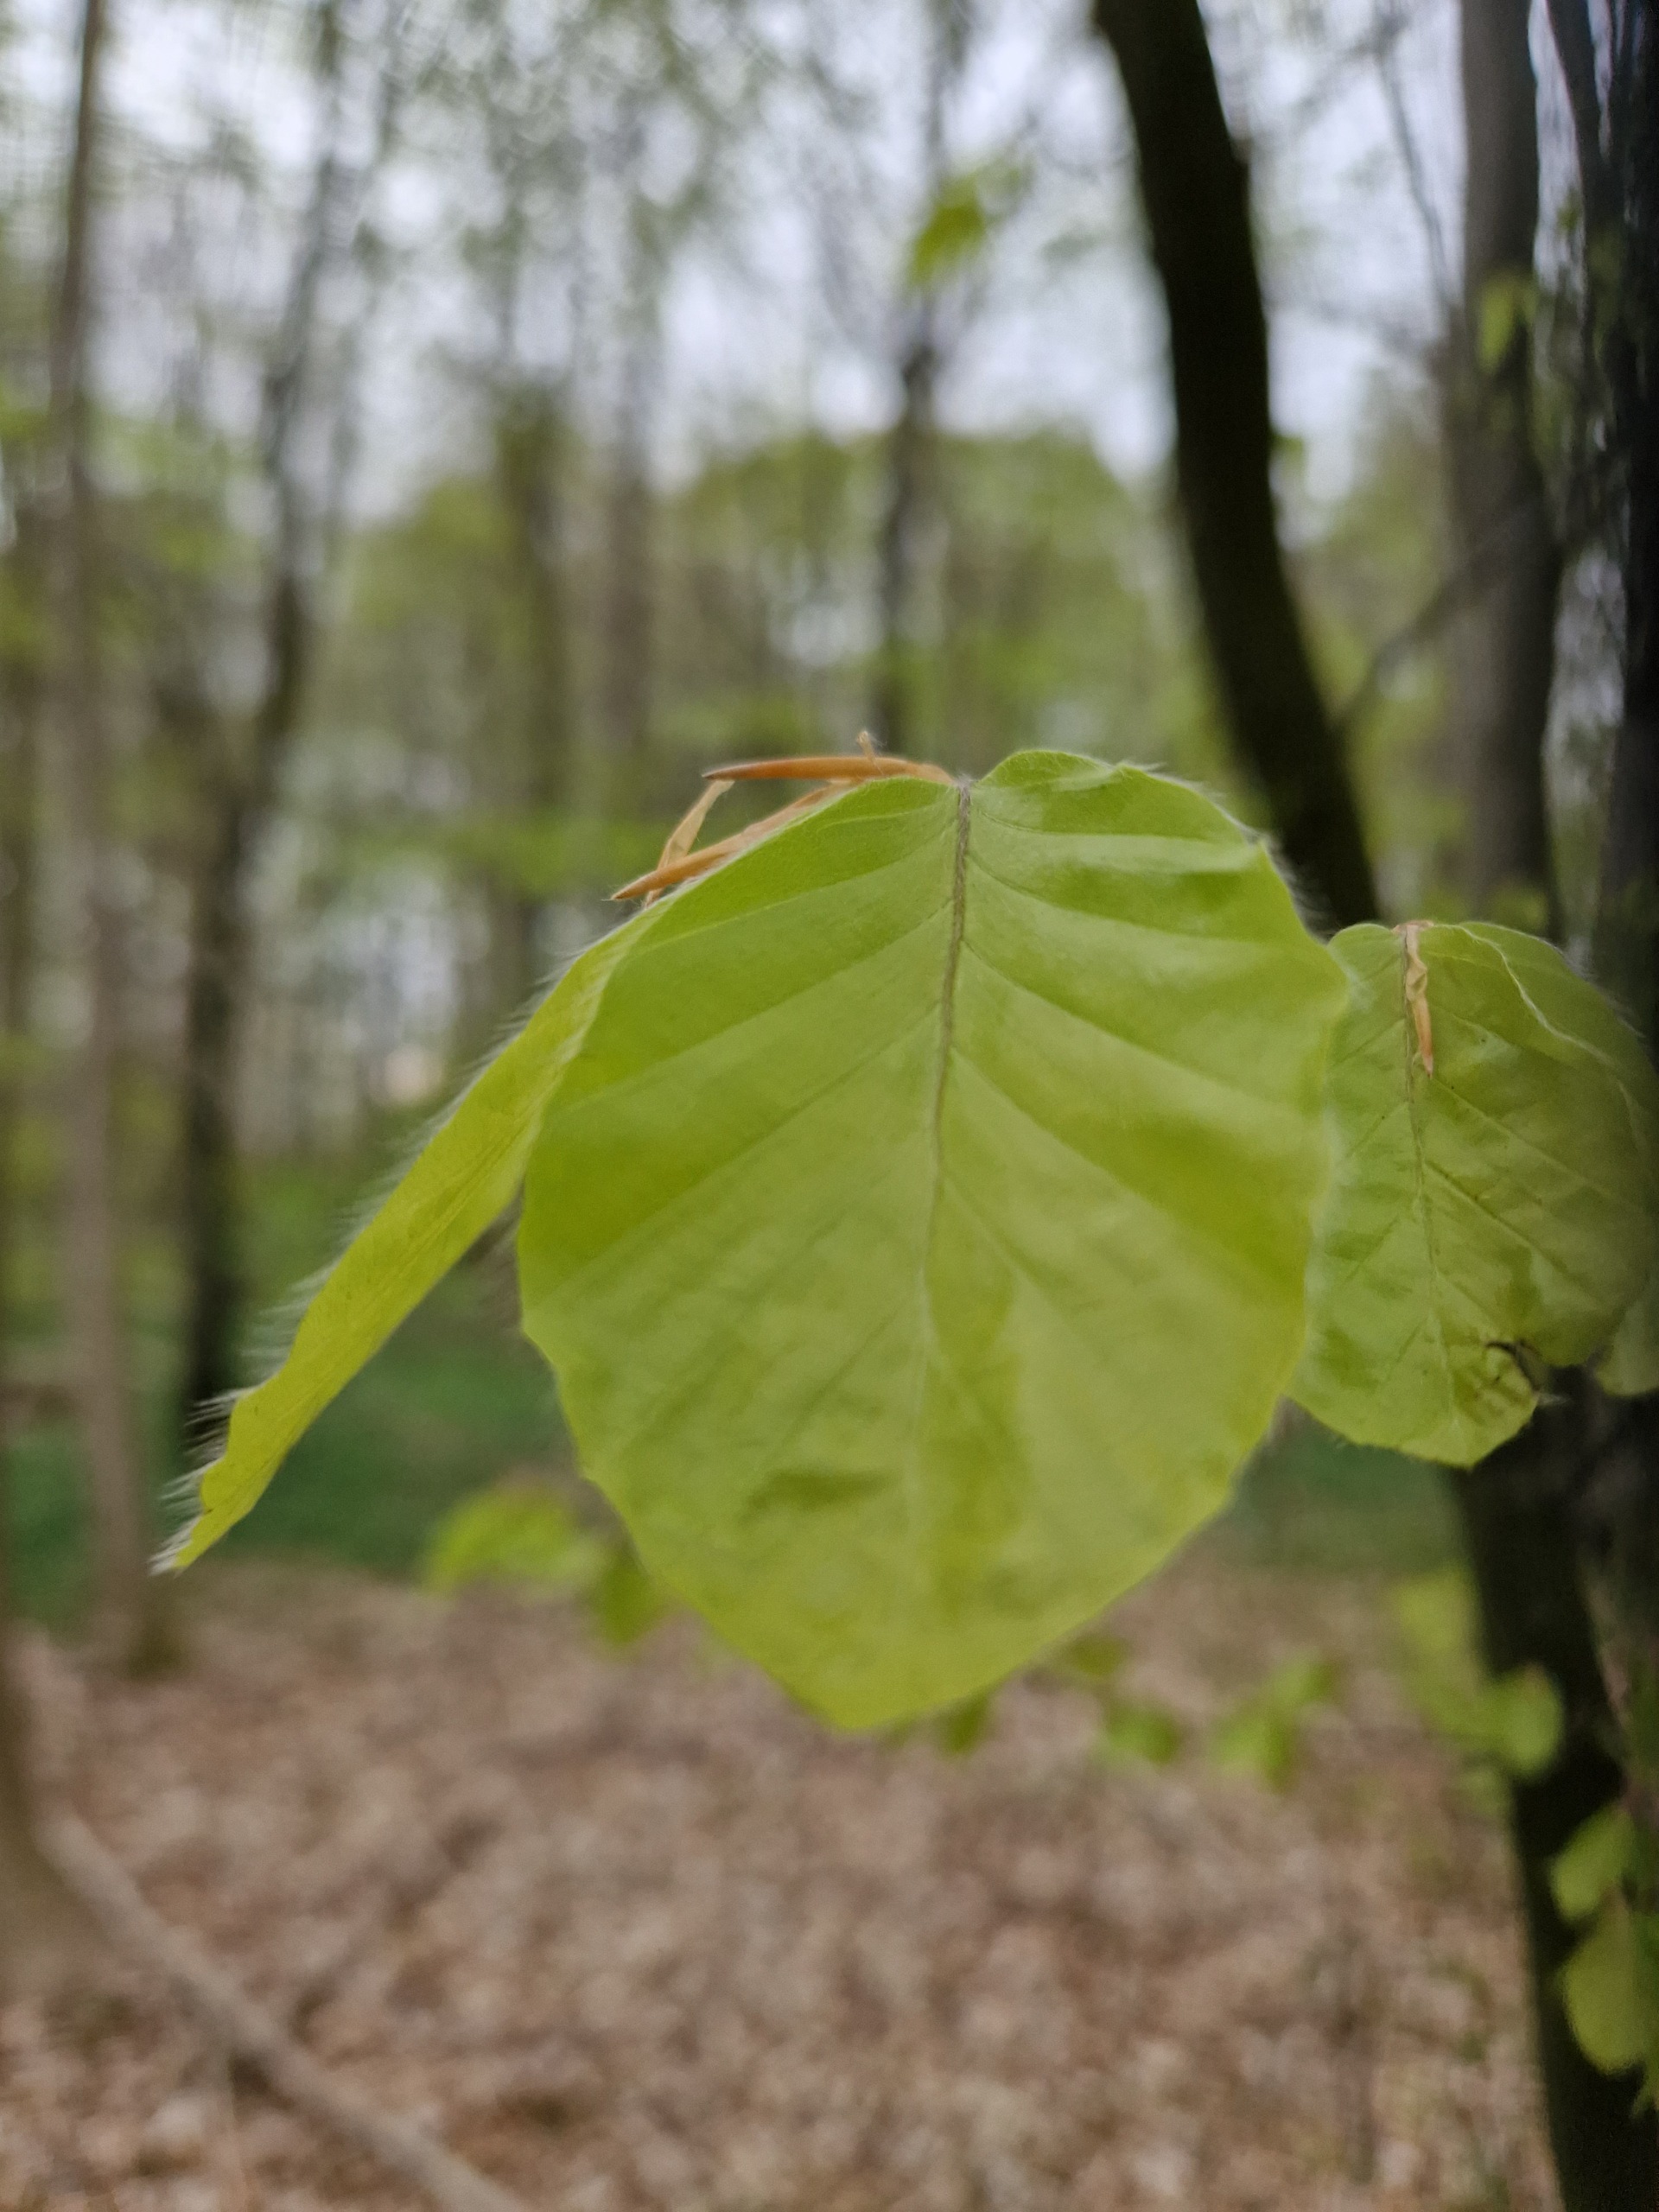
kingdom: Plantae
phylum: Tracheophyta
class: Magnoliopsida
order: Fagales
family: Fagaceae
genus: Fagus
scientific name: Fagus sylvatica
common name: Bøg
